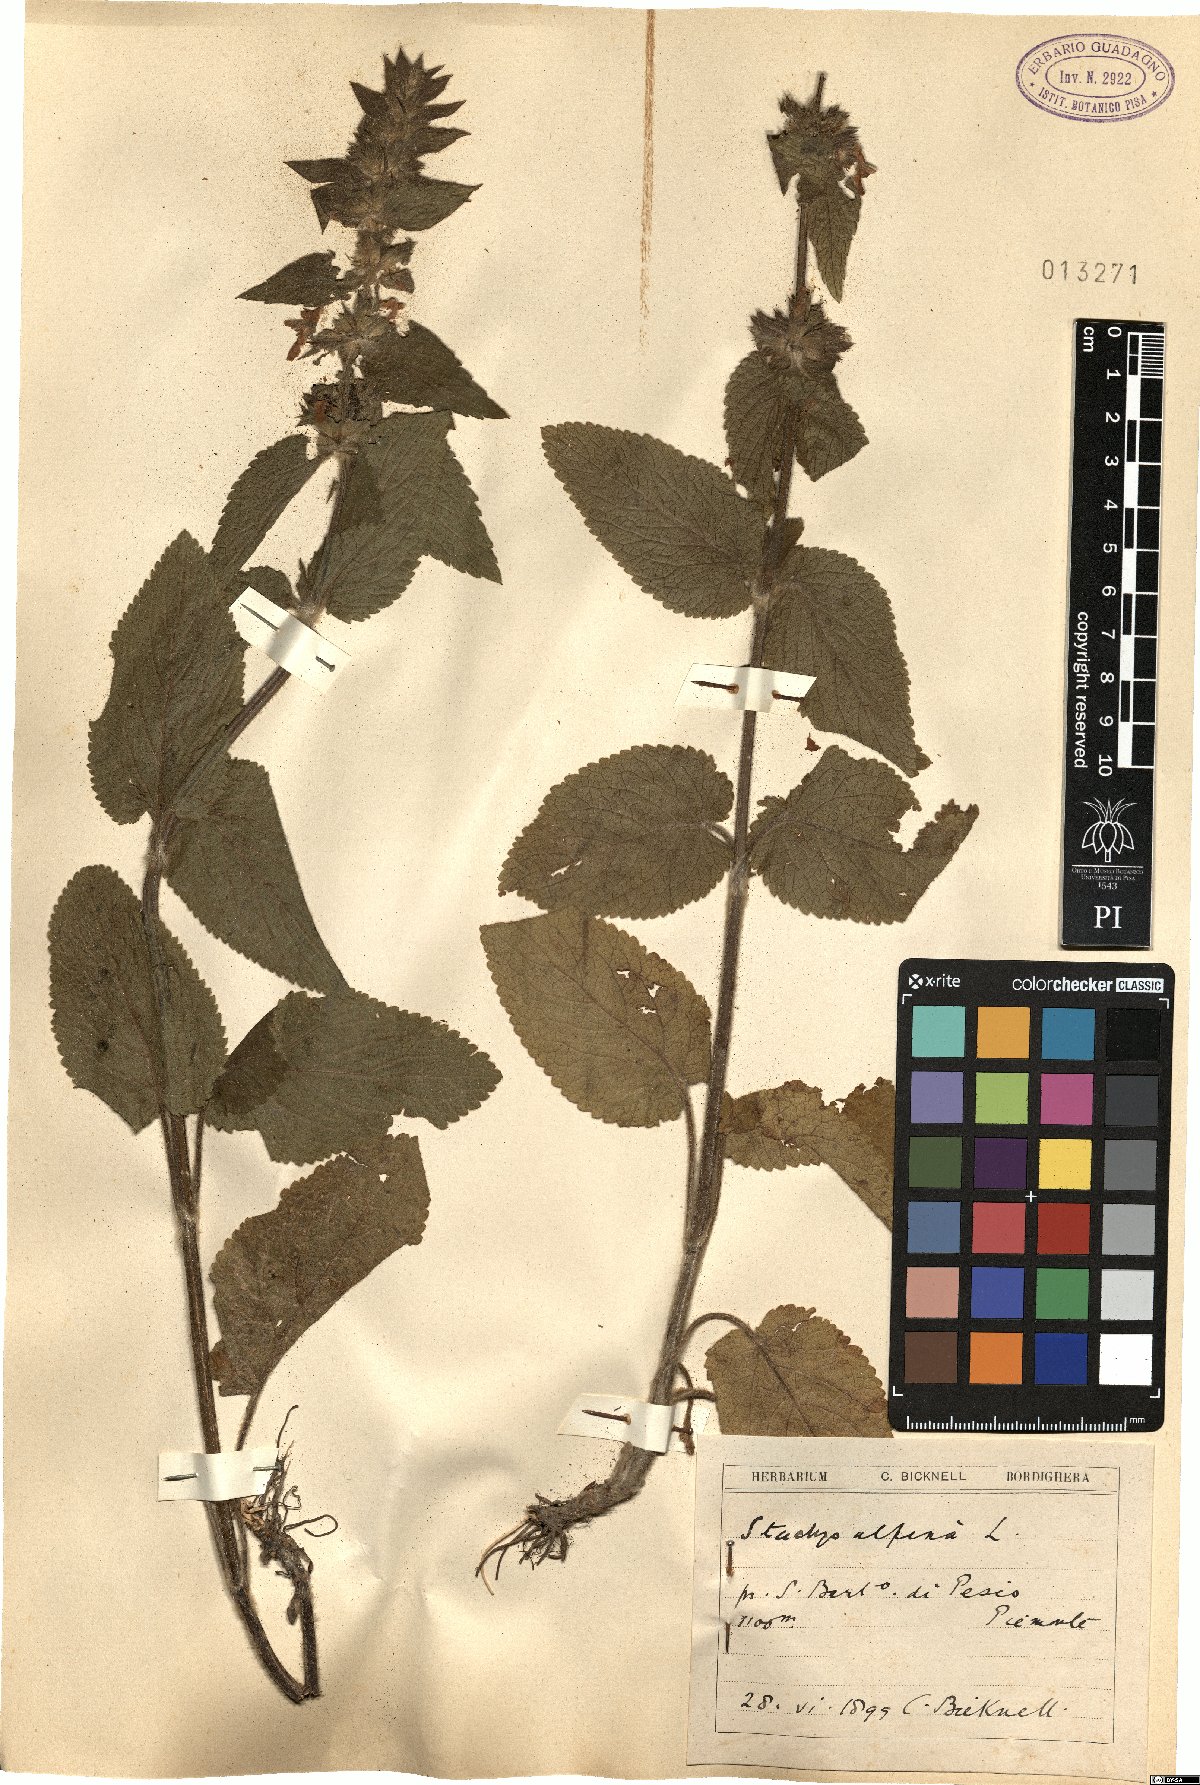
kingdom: Plantae
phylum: Tracheophyta
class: Magnoliopsida
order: Lamiales
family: Lamiaceae
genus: Stachys
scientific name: Stachys alpina
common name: Limestone woundwort
